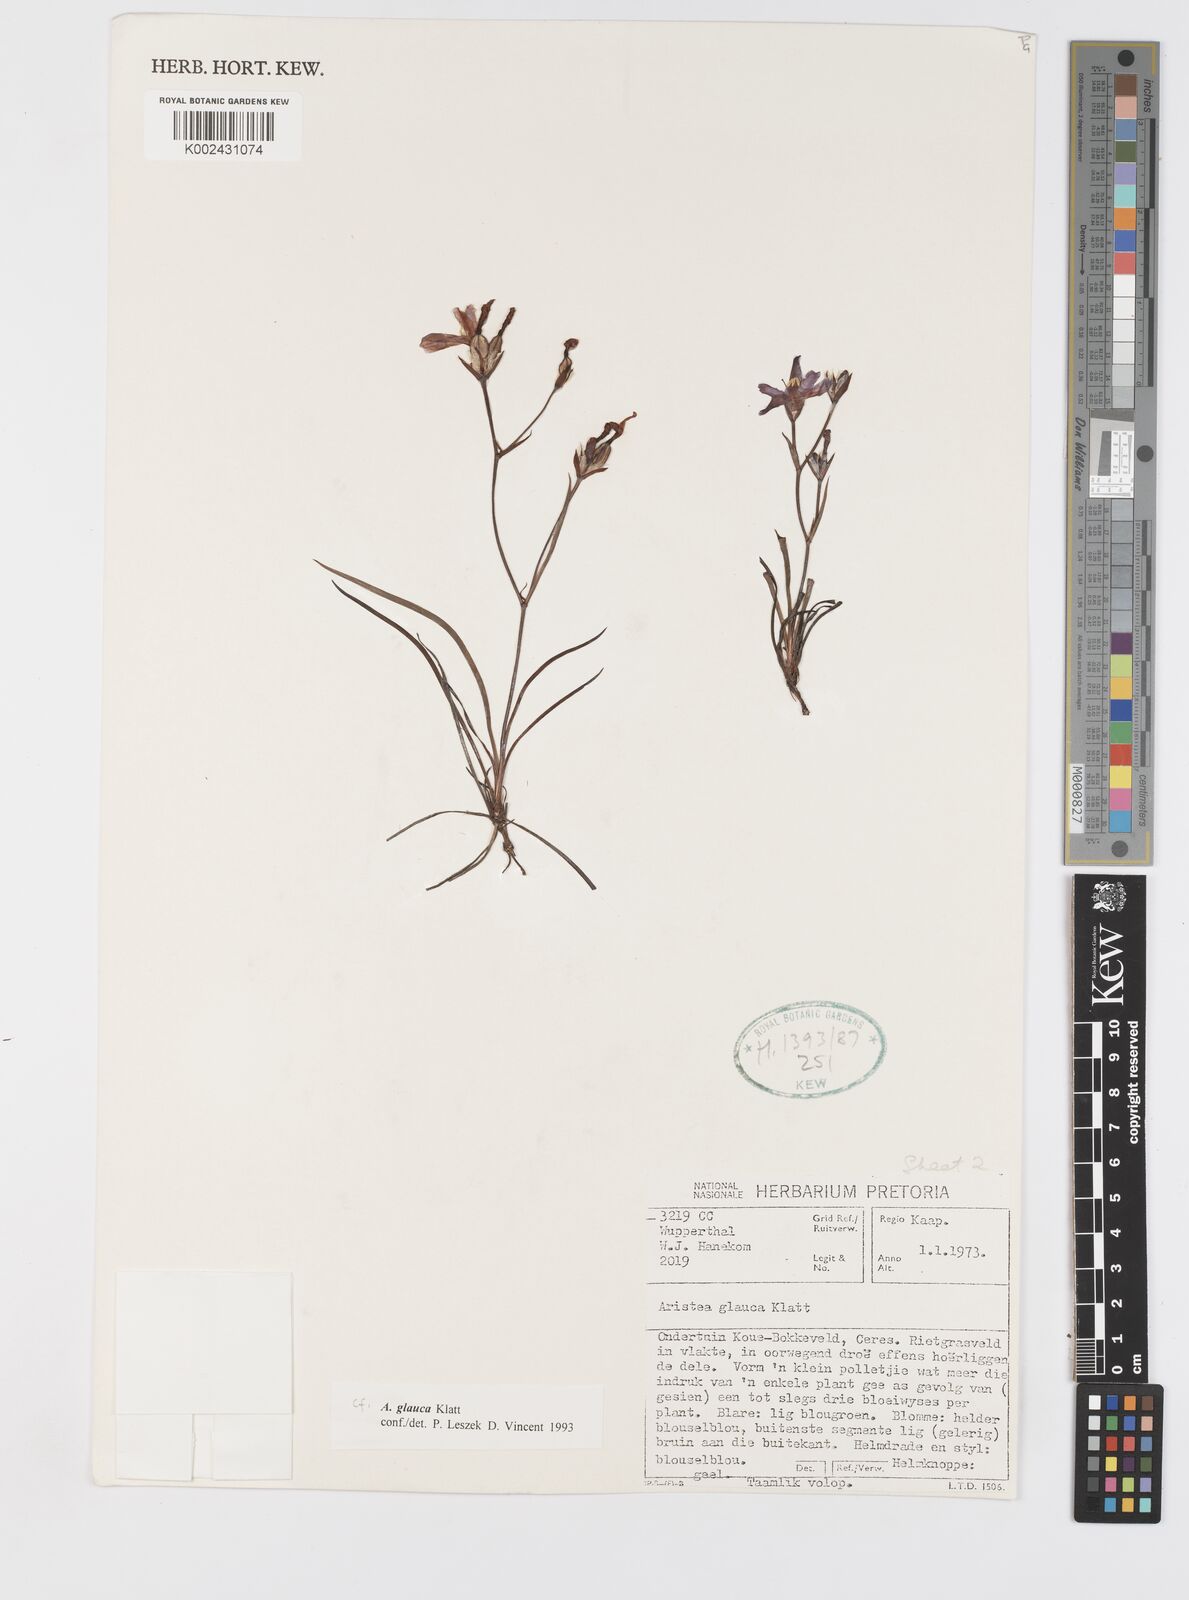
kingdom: Plantae
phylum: Tracheophyta
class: Liliopsida
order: Asparagales
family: Iridaceae
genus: Aristea
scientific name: Aristea glauca
